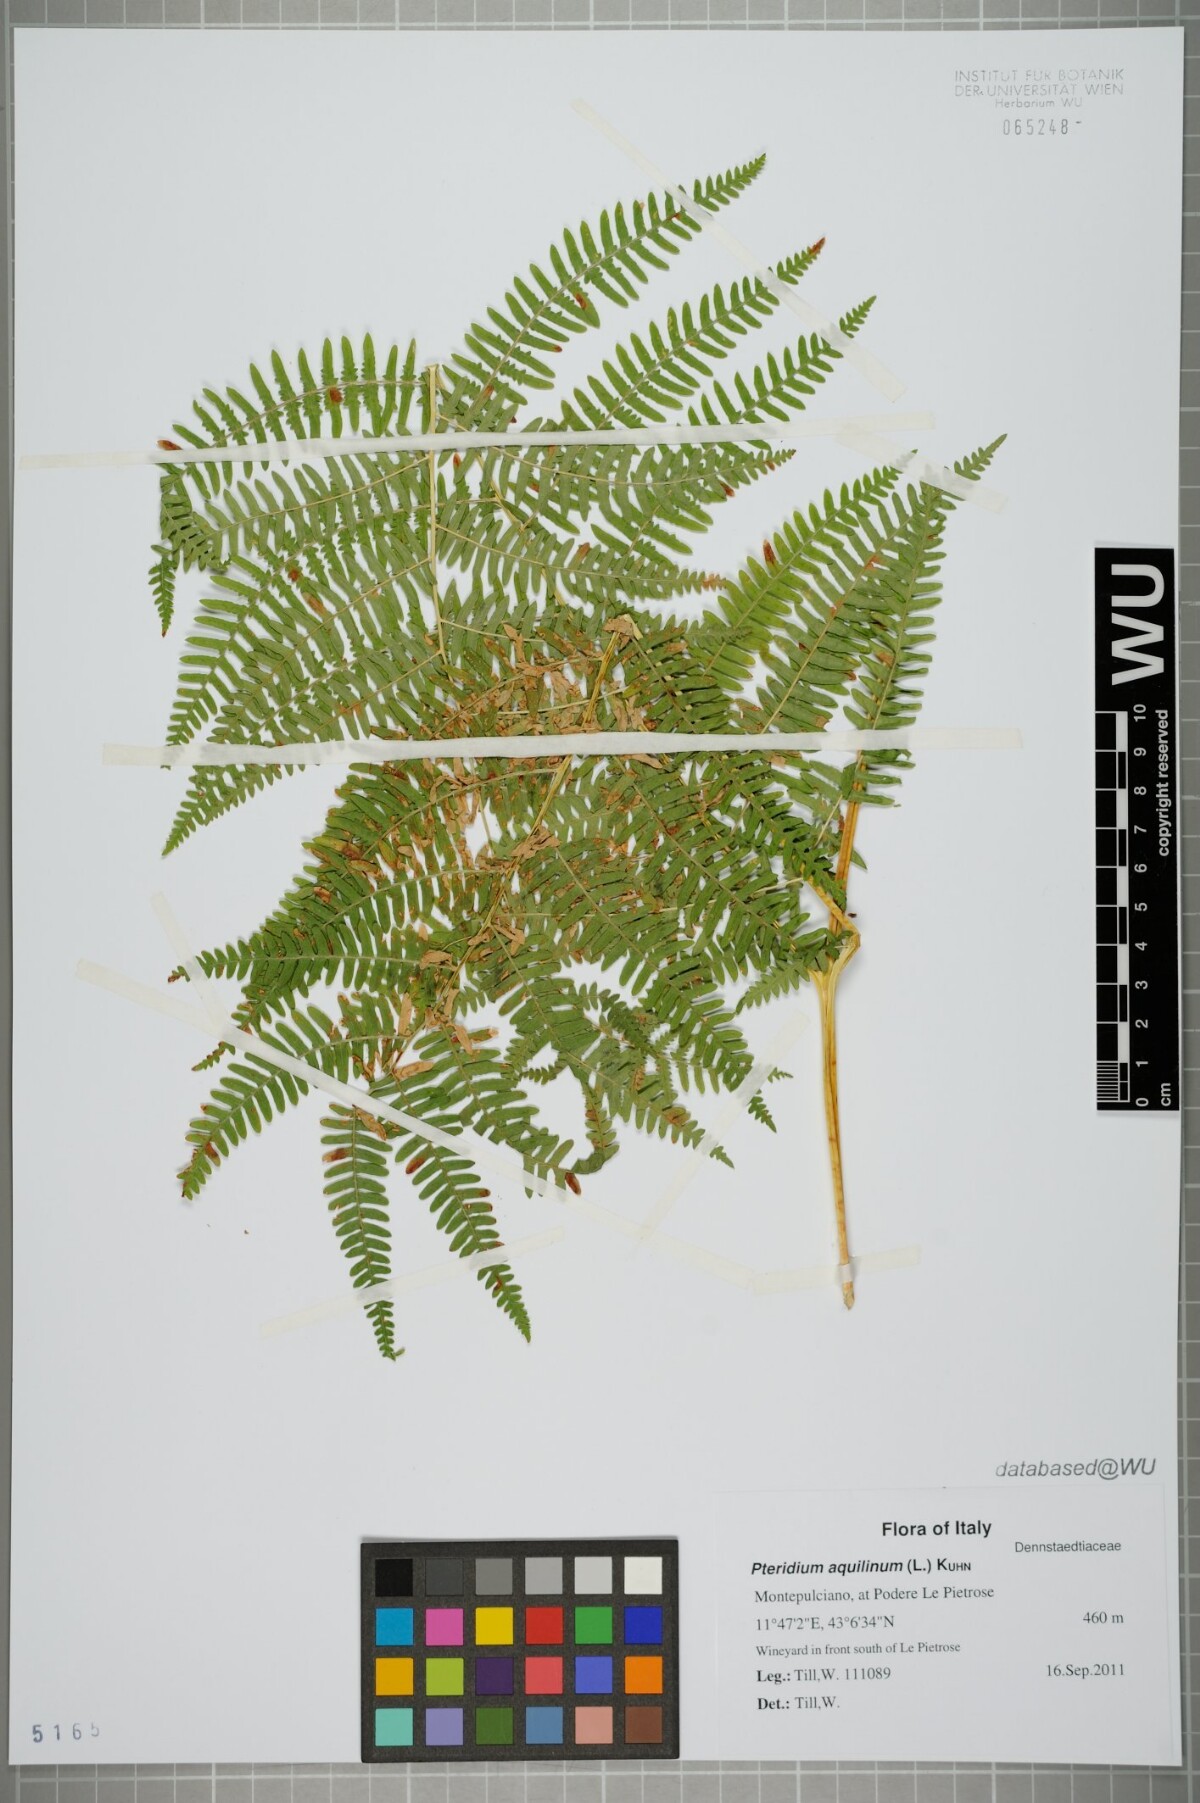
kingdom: Plantae
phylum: Tracheophyta
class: Polypodiopsida
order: Polypodiales
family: Dennstaedtiaceae
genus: Pteridium
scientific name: Pteridium aquilinum
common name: Bracken
